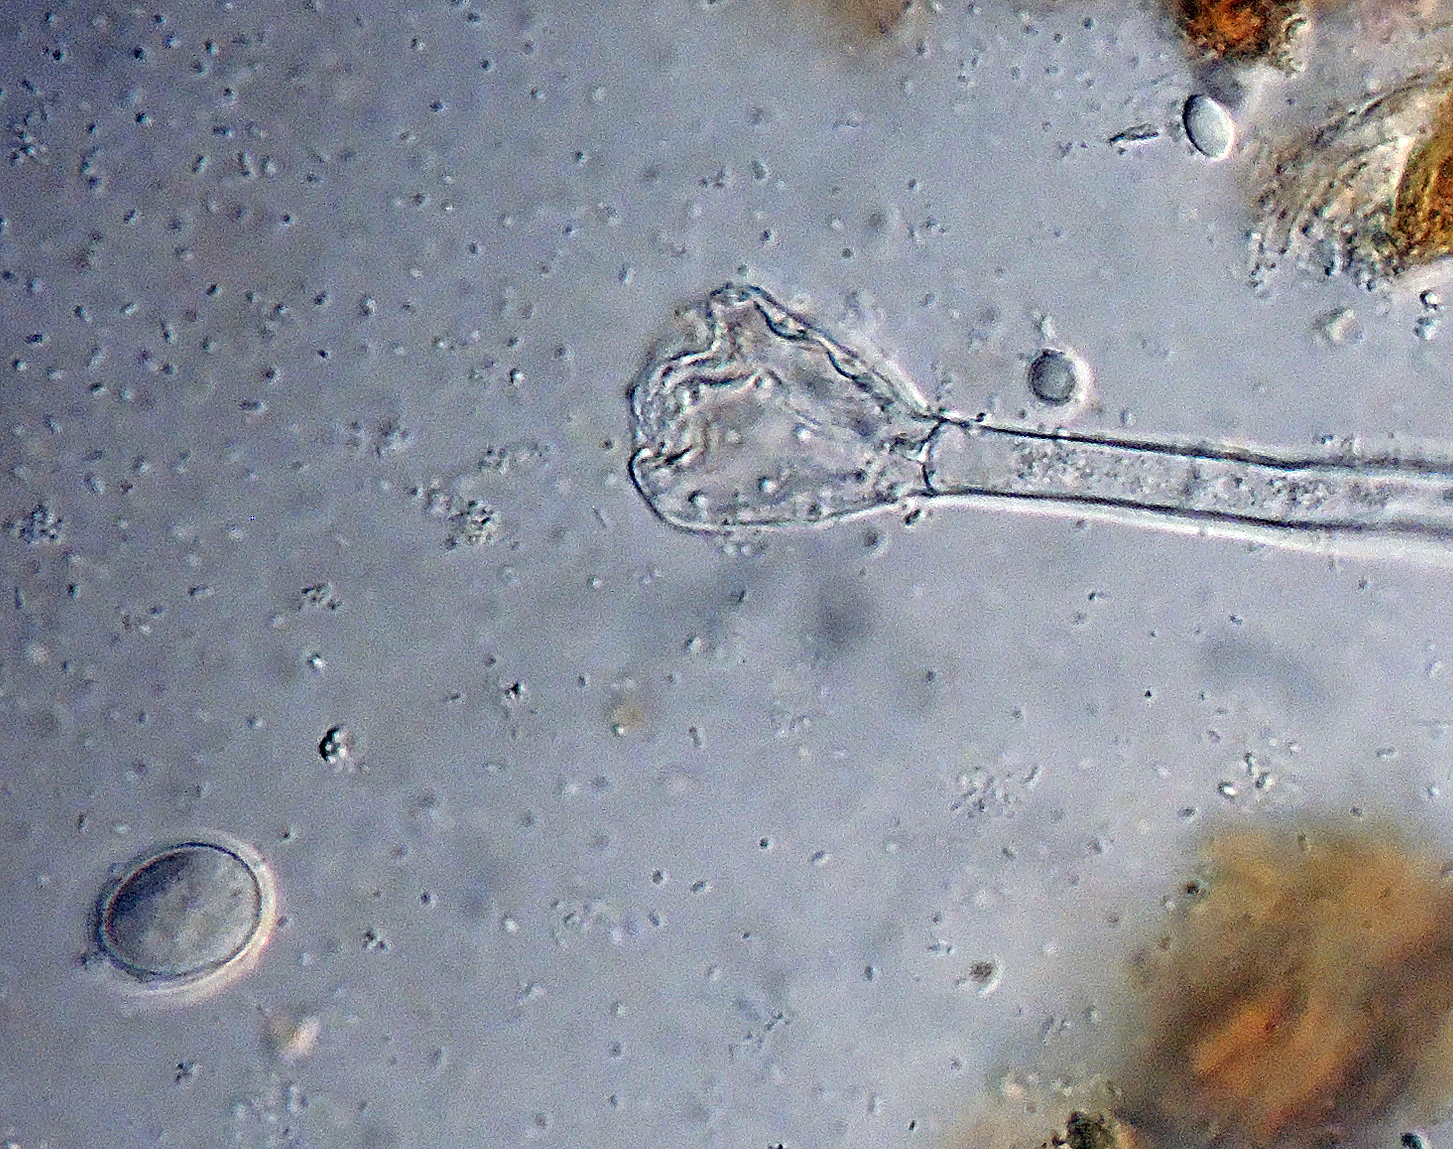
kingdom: Fungi
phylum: Ascomycota
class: Pezizomycetes
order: Pezizales
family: Pezizaceae
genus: Oedocephalum
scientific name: Oedocephalum glomerulosum
